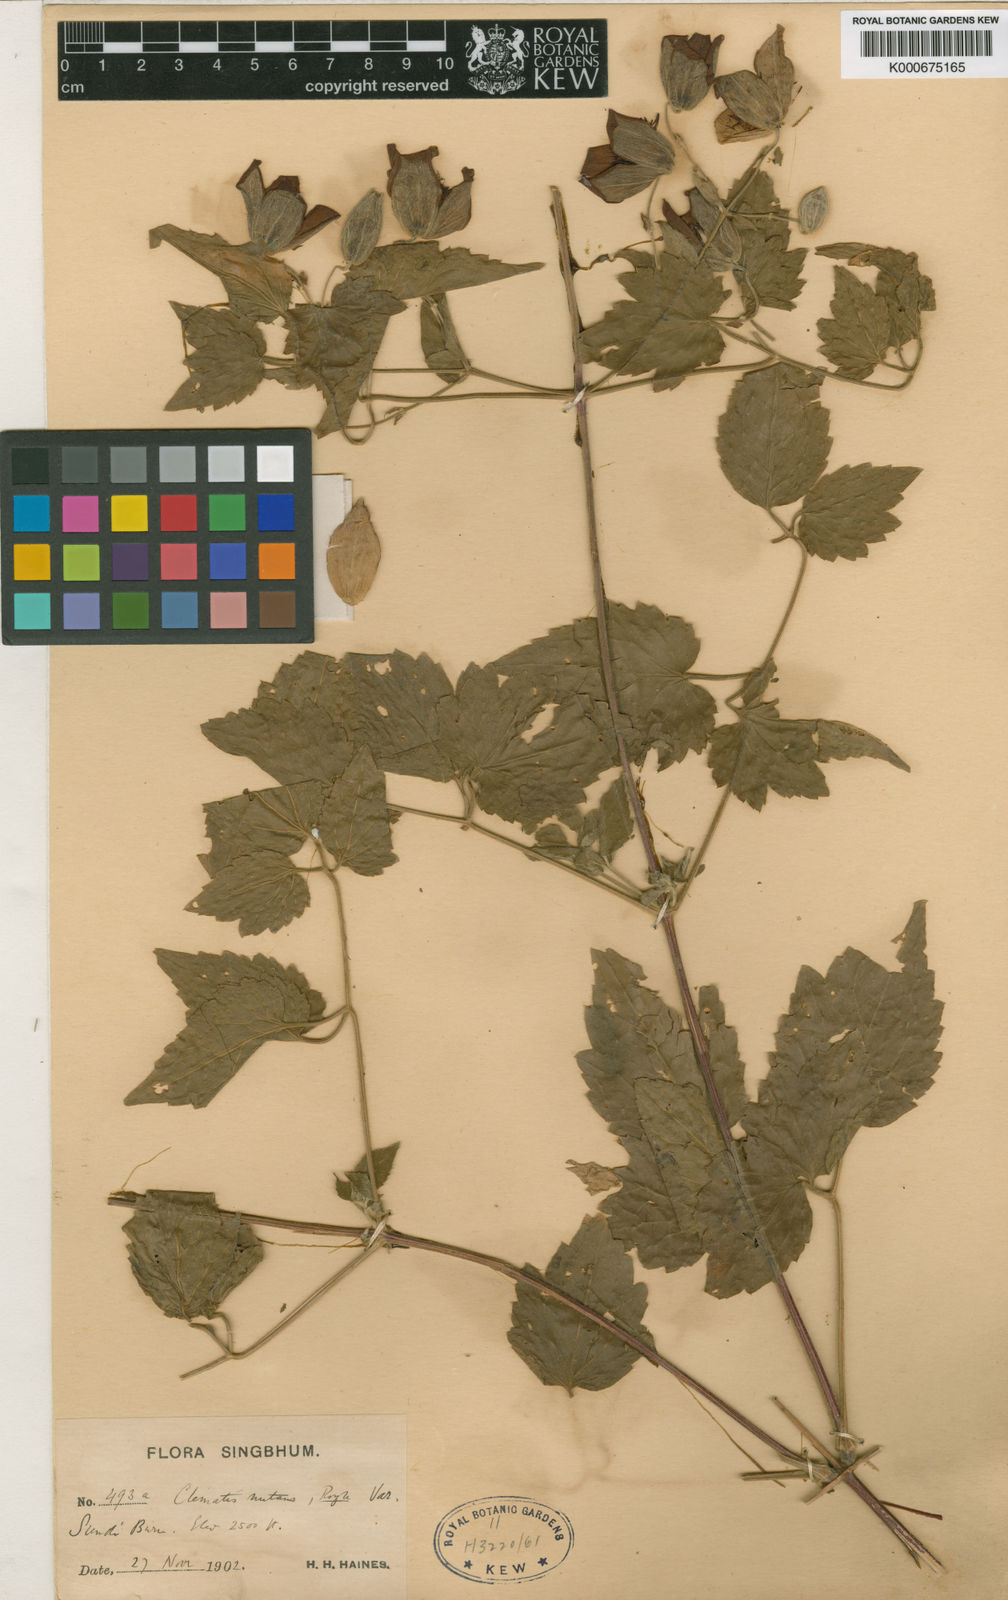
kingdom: Plantae
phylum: Tracheophyta
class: Magnoliopsida
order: Ranunculales
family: Ranunculaceae
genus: Clematis
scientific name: Clematis integrifolia
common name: Solitary clematis
